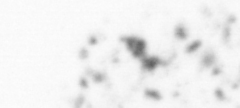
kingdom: Animalia
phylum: Chordata
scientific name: Chordata
